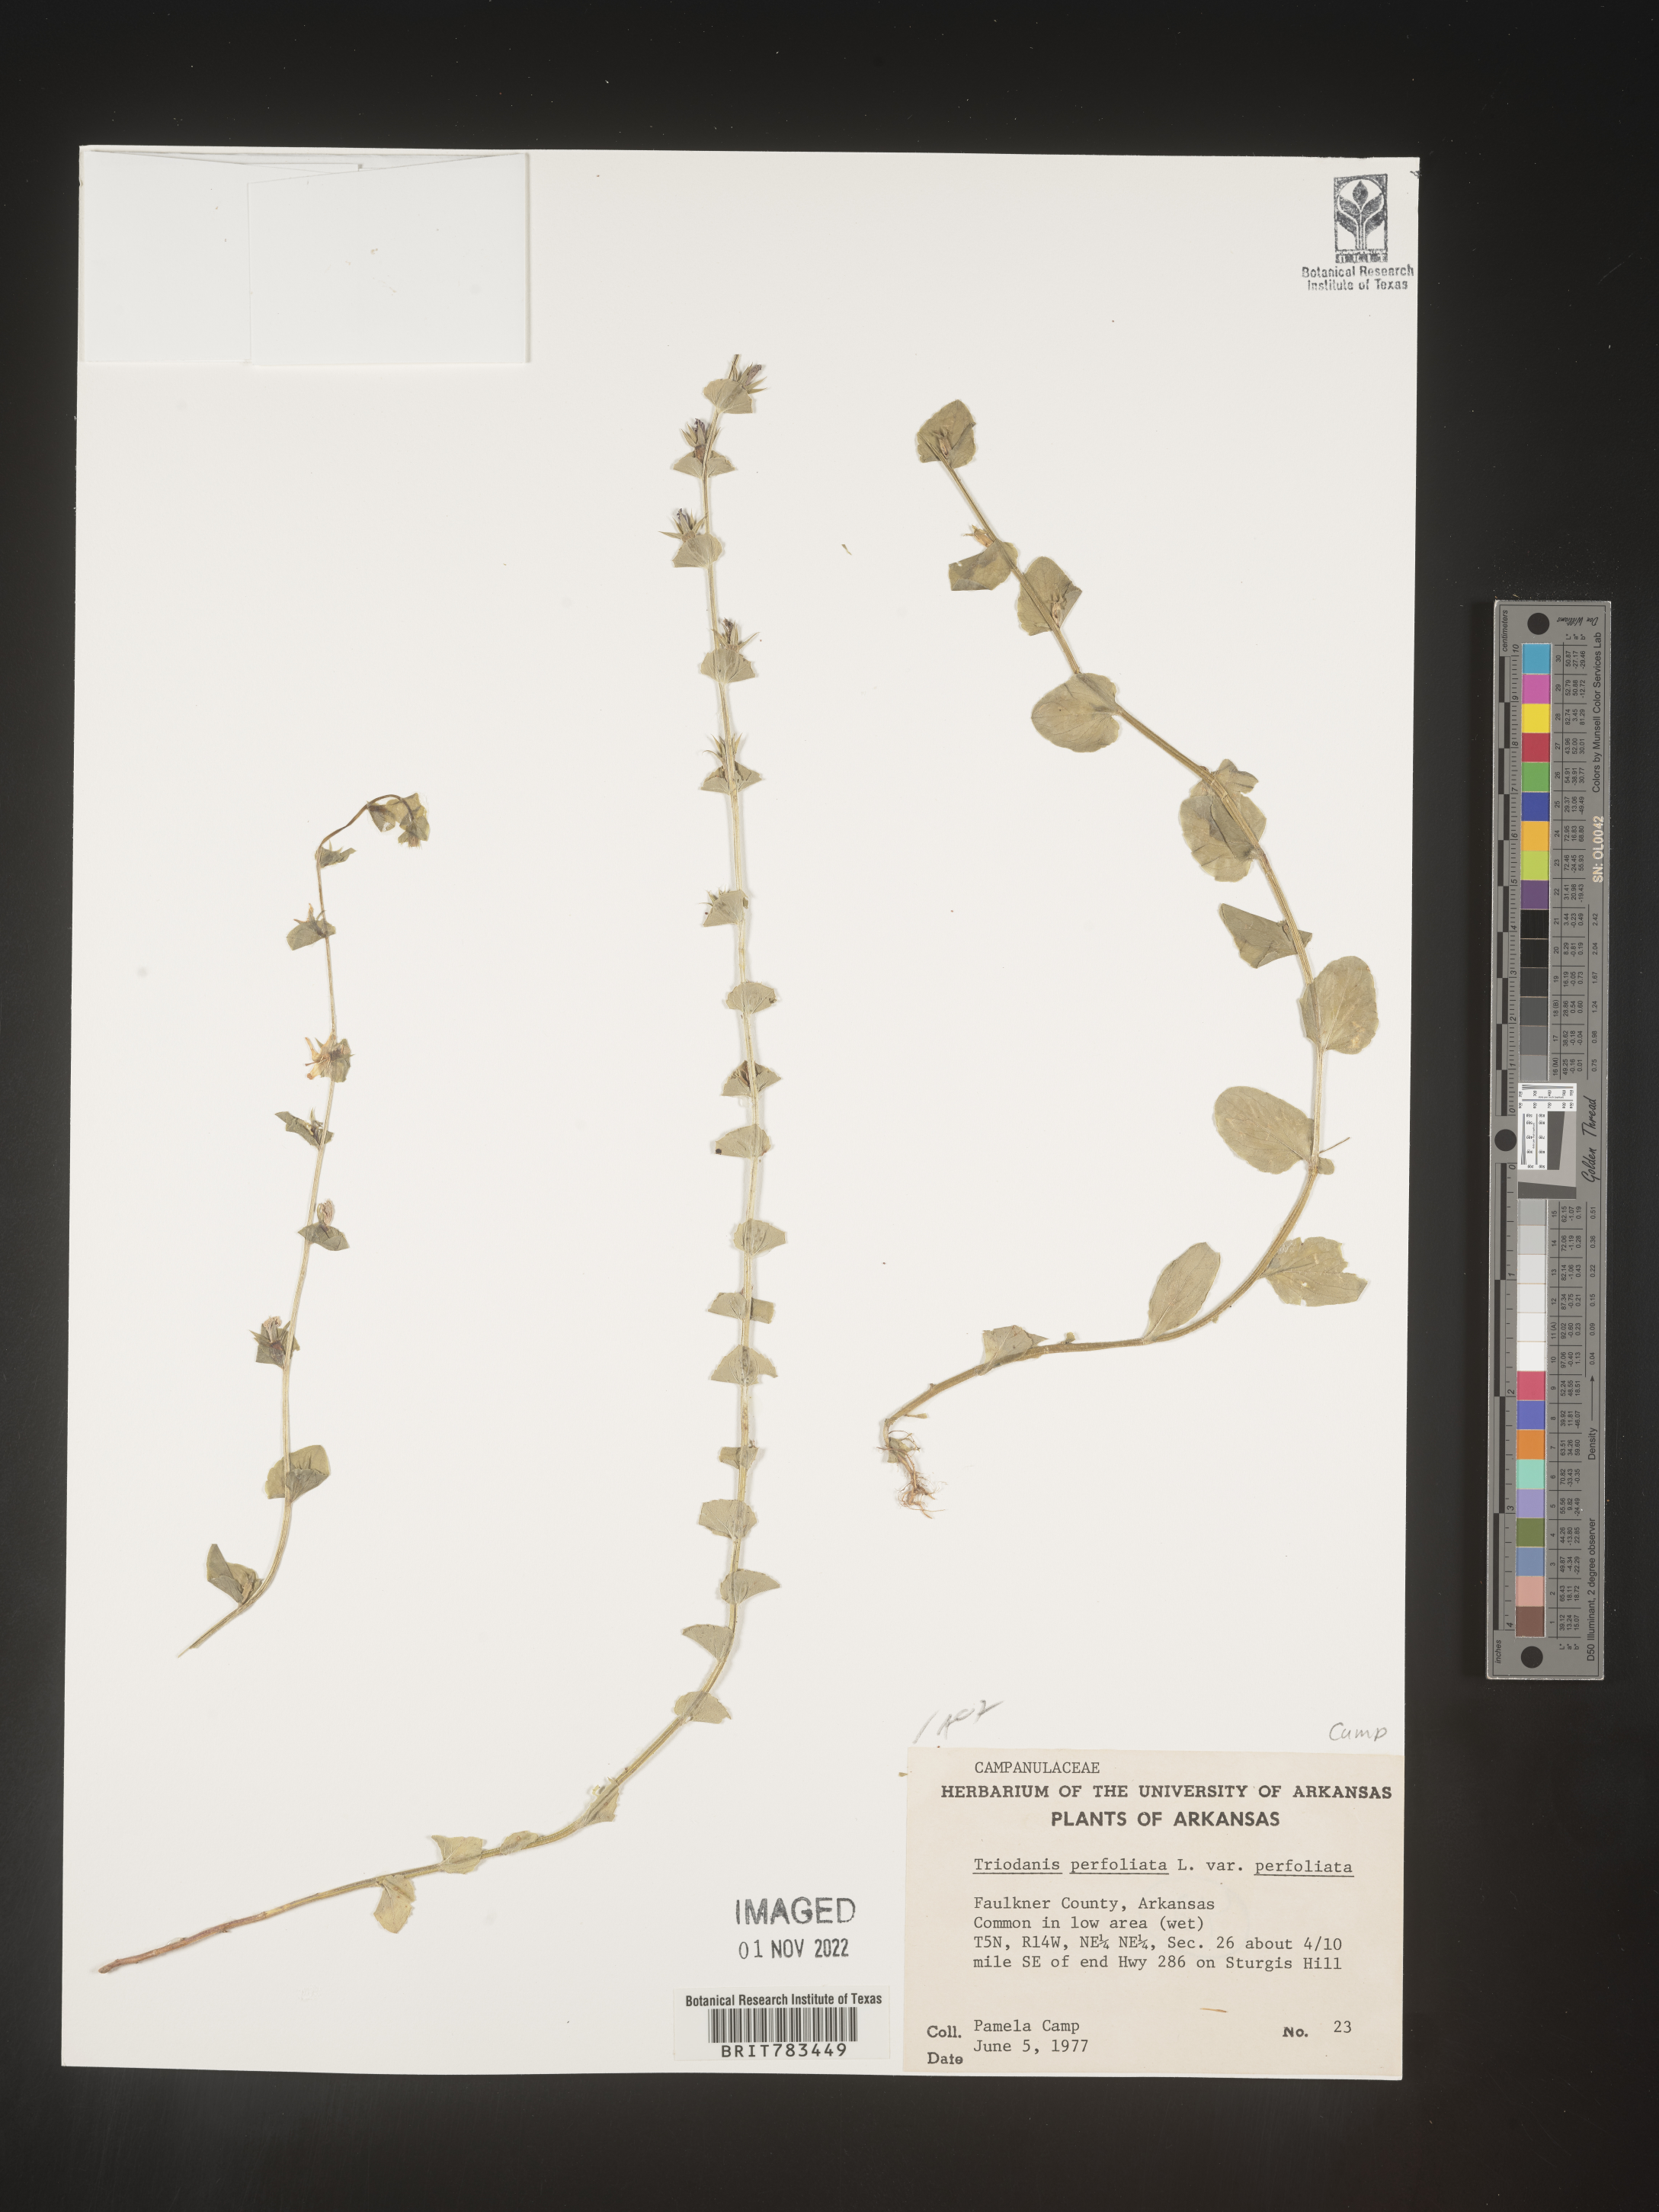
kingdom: Plantae
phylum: Tracheophyta
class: Magnoliopsida
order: Asterales
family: Campanulaceae
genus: Triodanis
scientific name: Triodanis perfoliata
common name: Clasping venus' looking-glass
